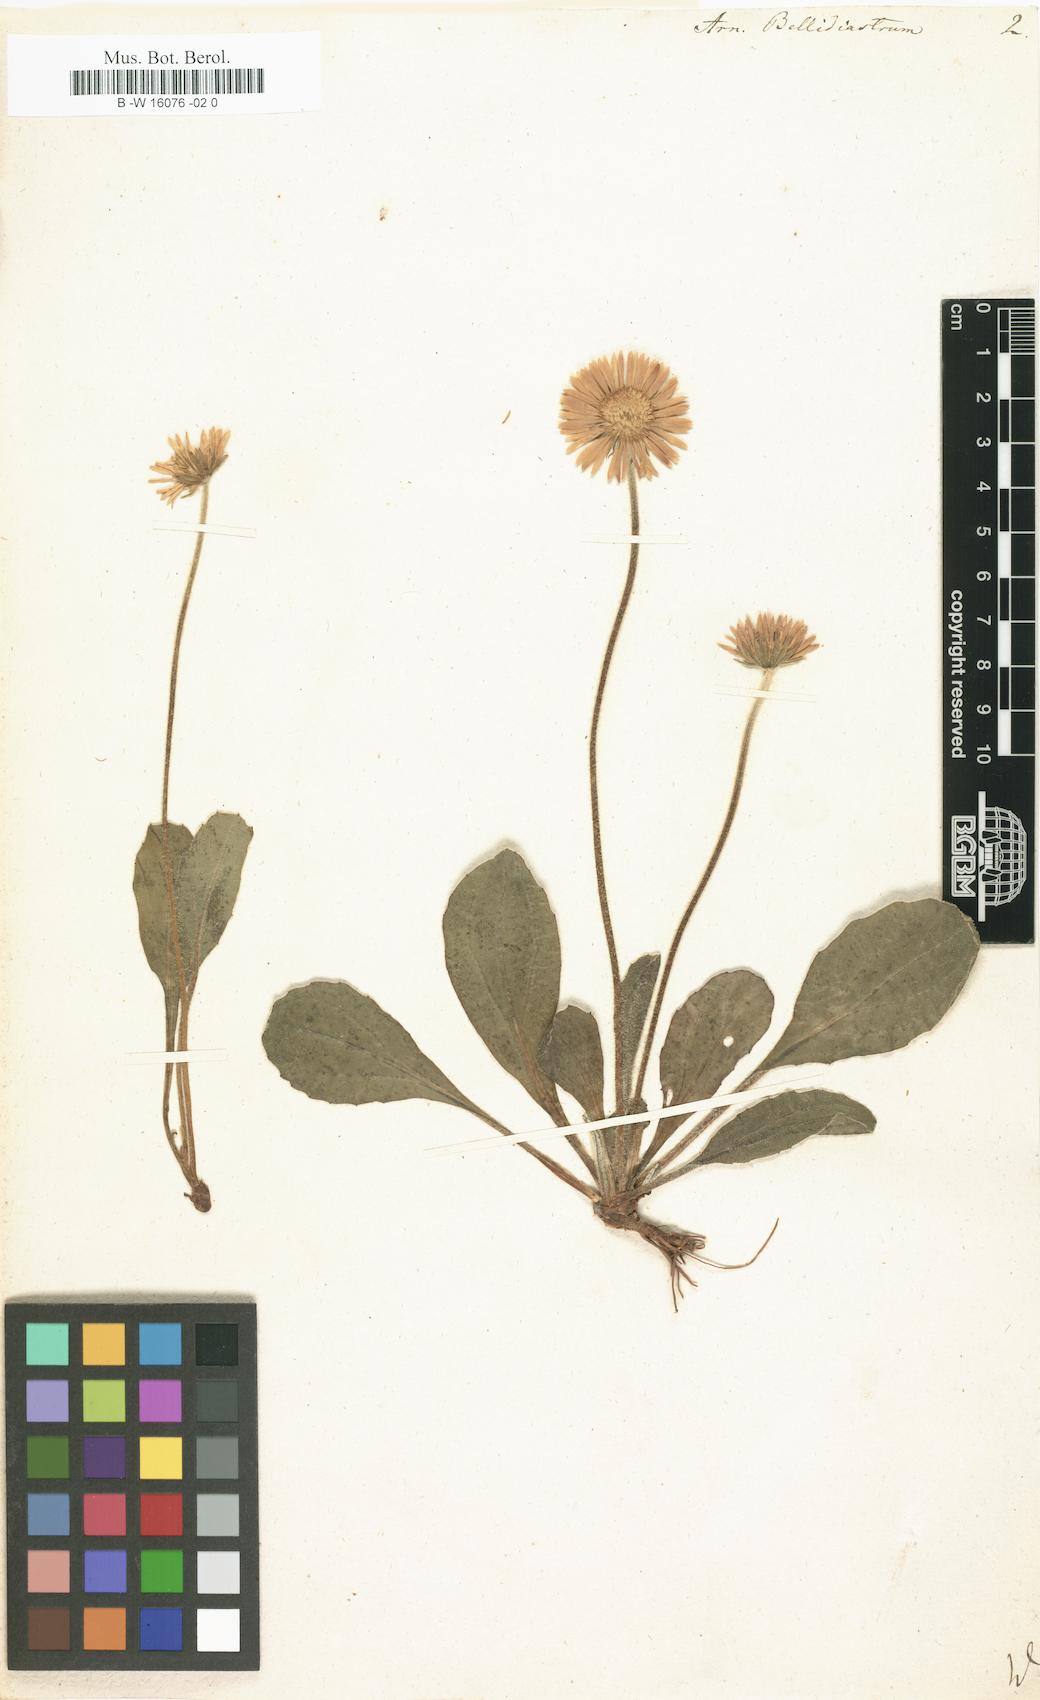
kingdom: Plantae
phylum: Tracheophyta
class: Magnoliopsida
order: Asterales
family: Asteraceae
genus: Bellidiastrum
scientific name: Bellidiastrum michelii
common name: Daisy-star aster
